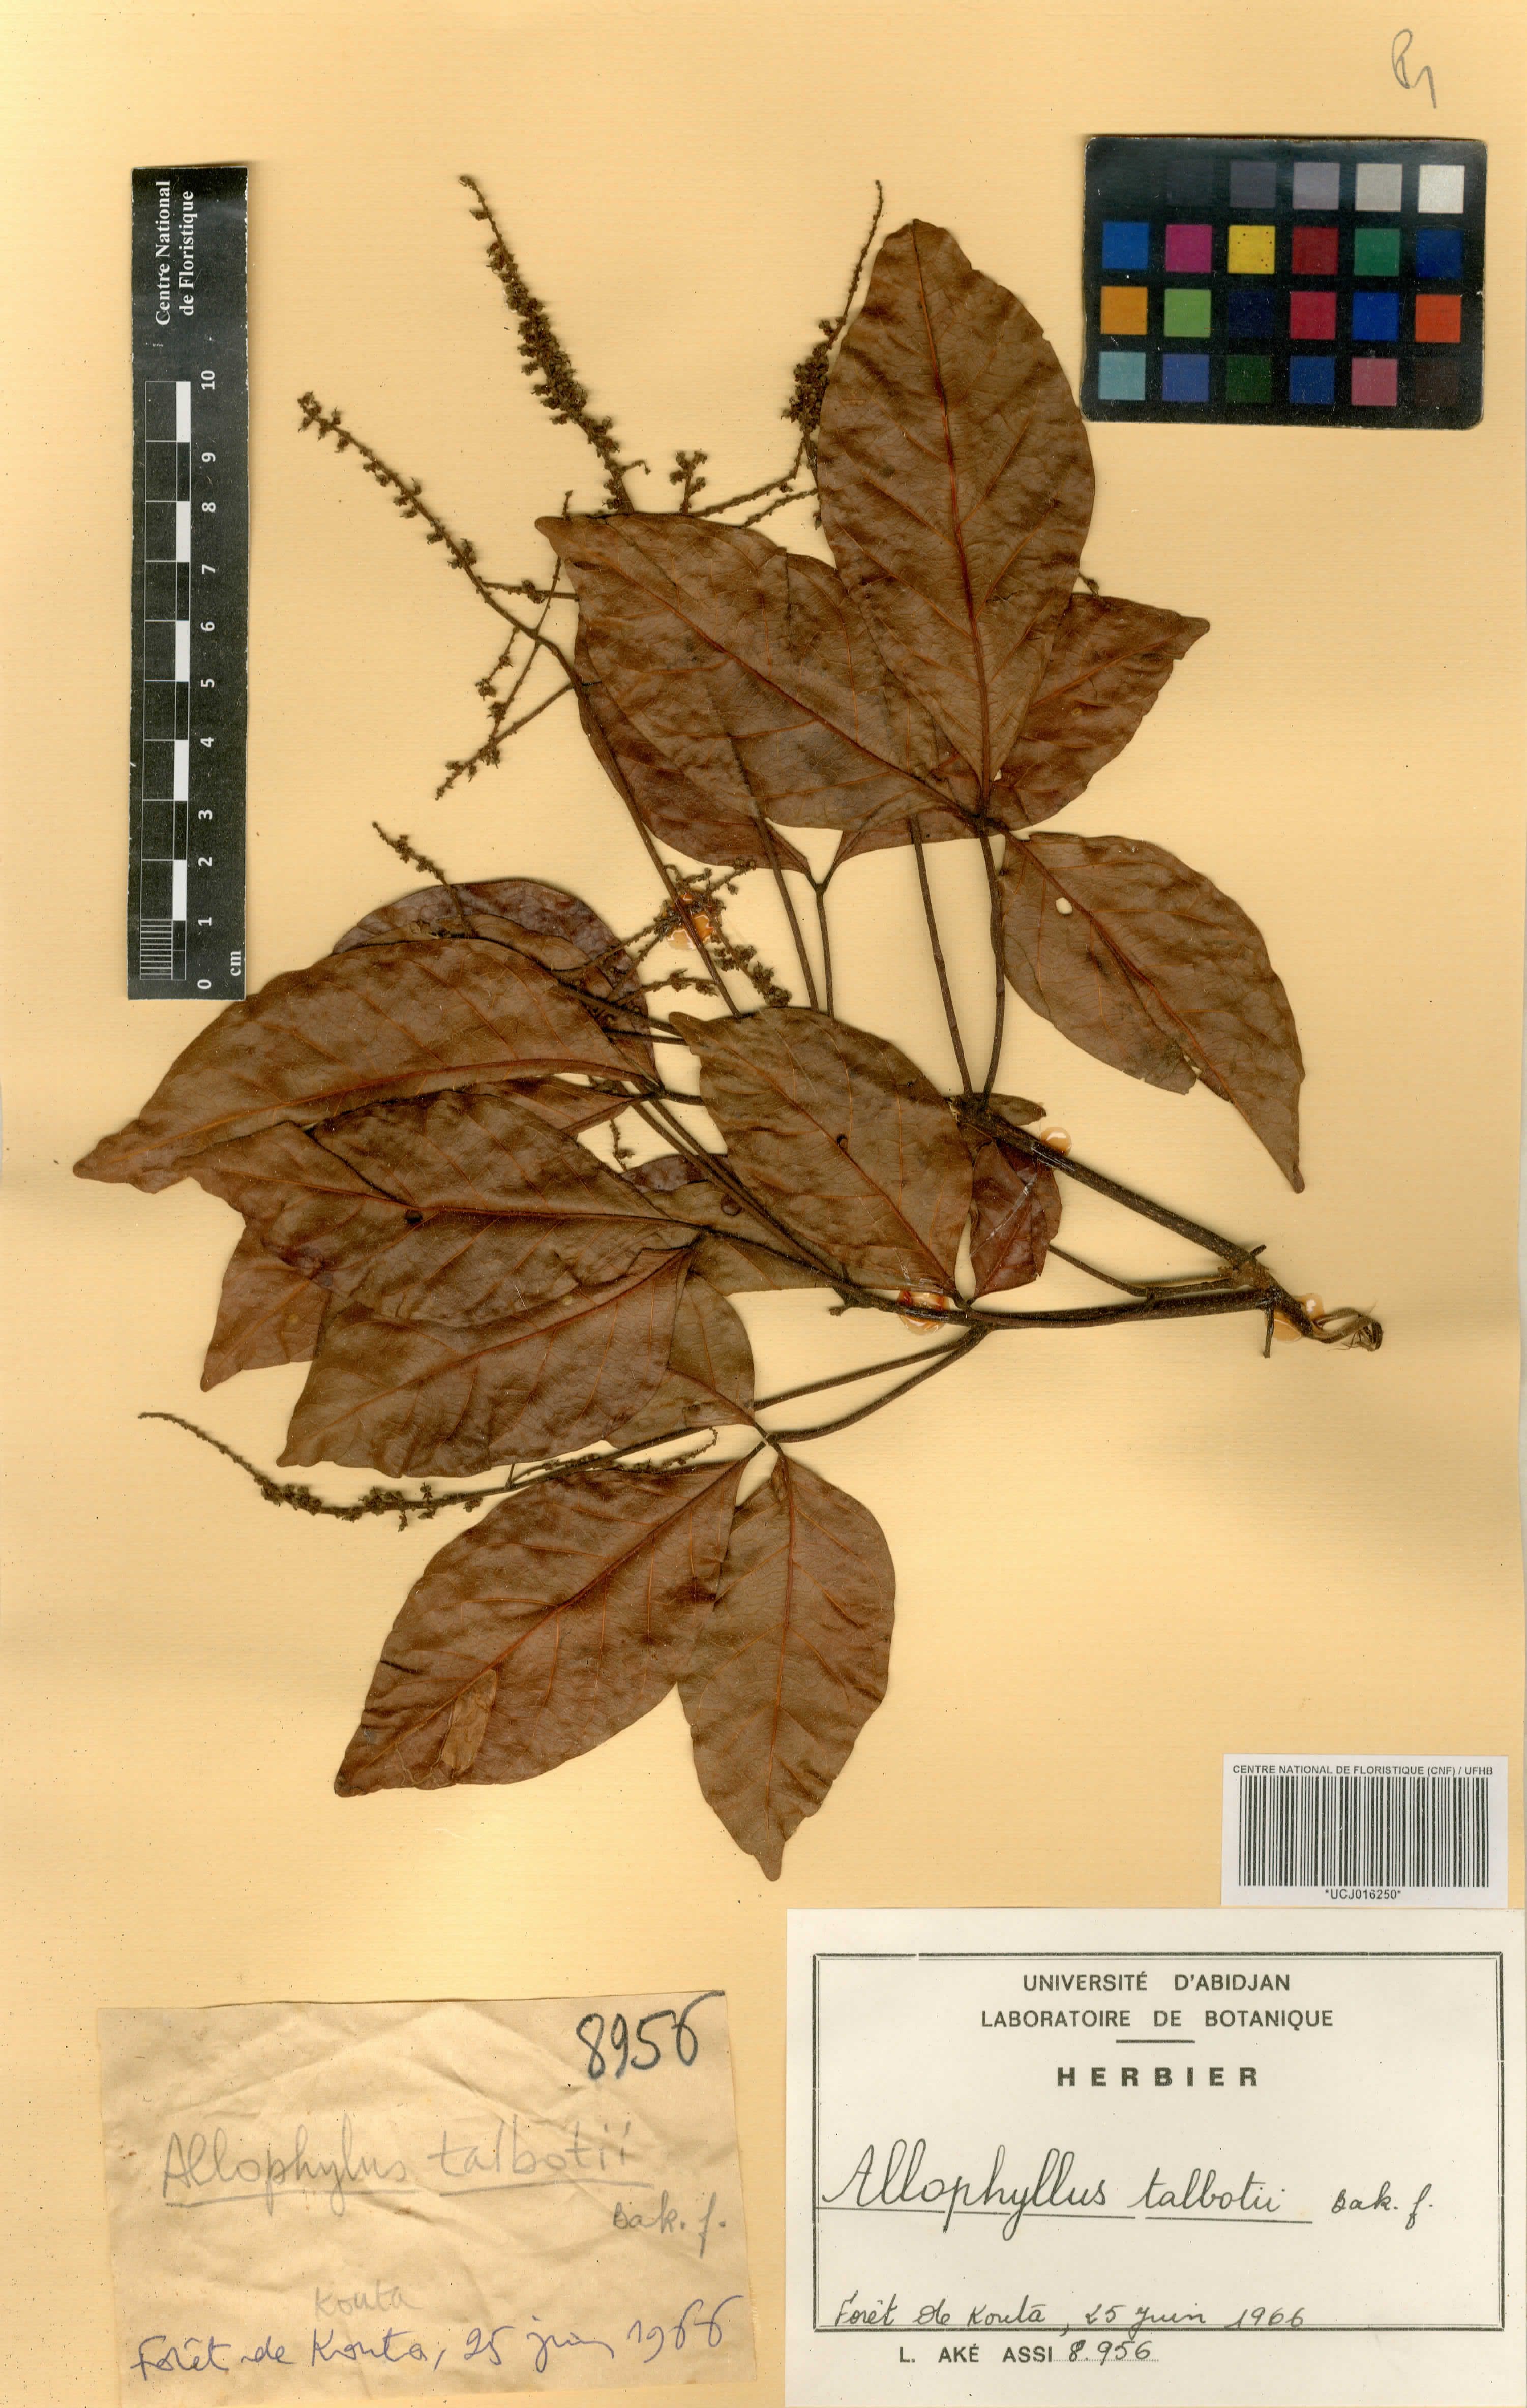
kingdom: Plantae
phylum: Tracheophyta
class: Magnoliopsida
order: Sapindales
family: Sapindaceae
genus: Allophylus
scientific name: Allophylus talbotii
